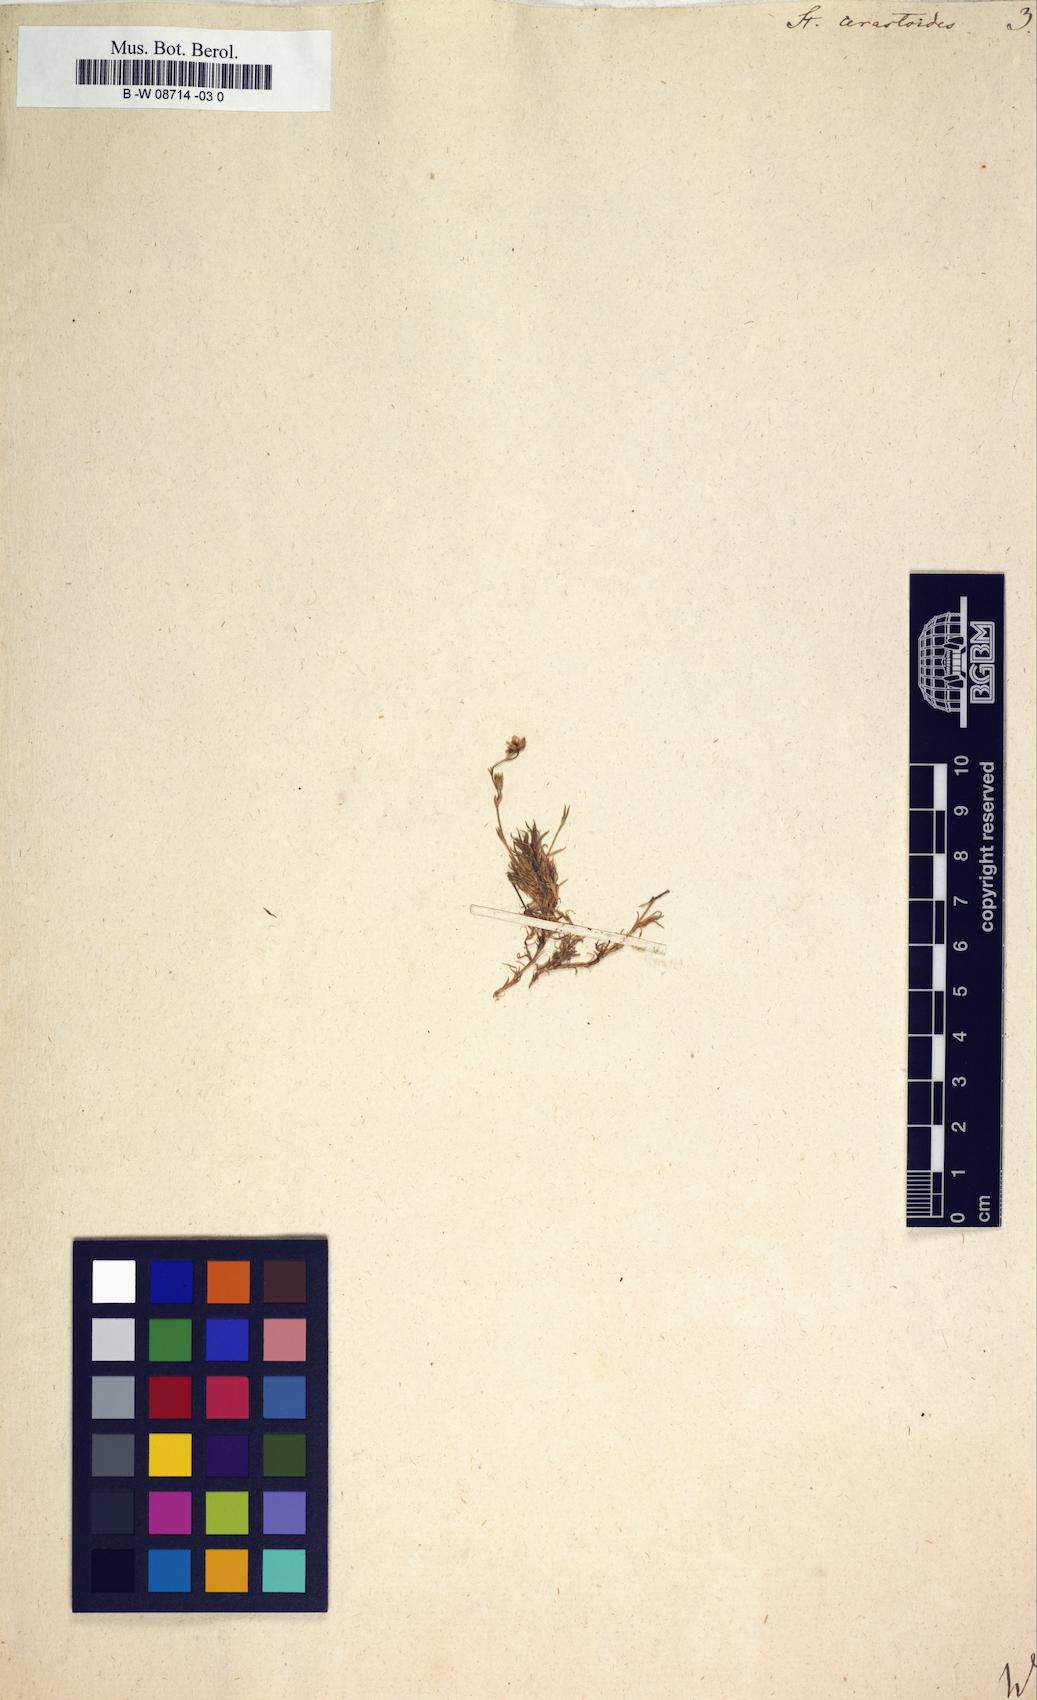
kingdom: Plantae
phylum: Tracheophyta
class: Magnoliopsida
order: Caryophyllales
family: Caryophyllaceae
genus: Stellaria
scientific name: Stellaria cerastoides
